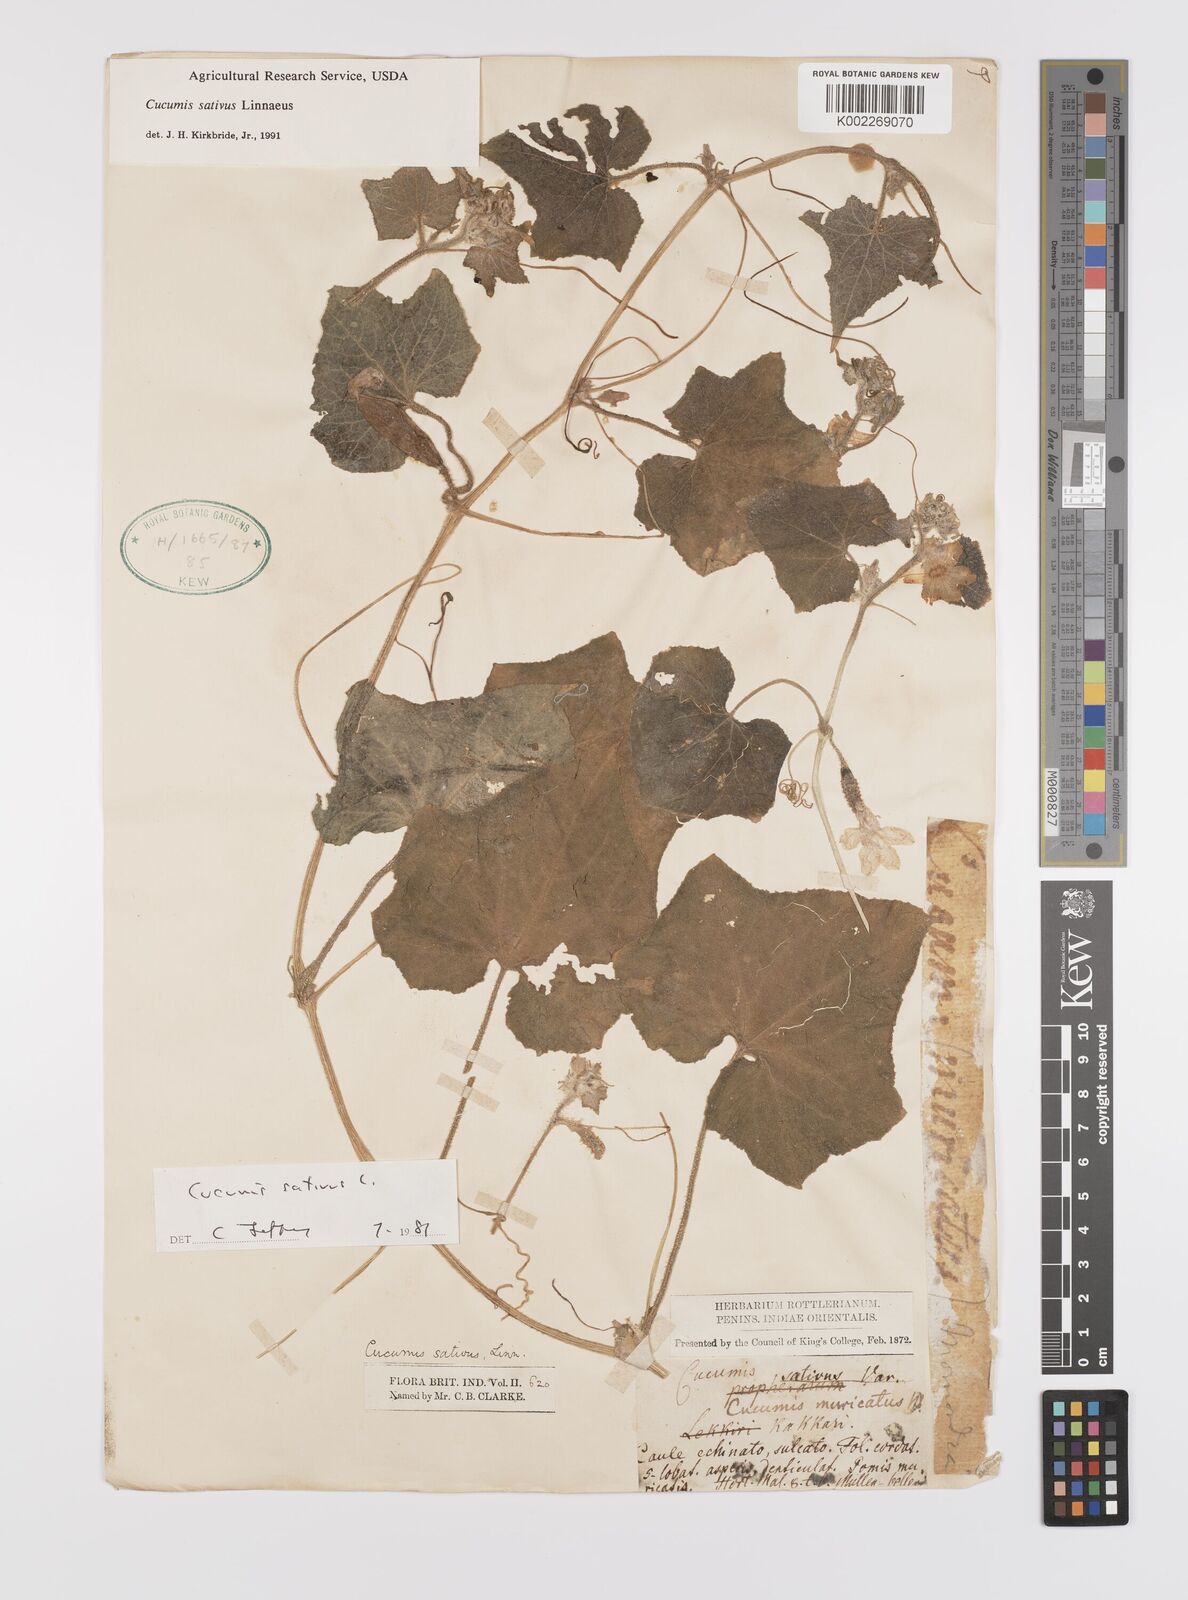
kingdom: Plantae
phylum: Tracheophyta
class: Magnoliopsida
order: Cucurbitales
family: Cucurbitaceae
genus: Cucumis
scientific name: Cucumis sativus
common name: Cucumber
